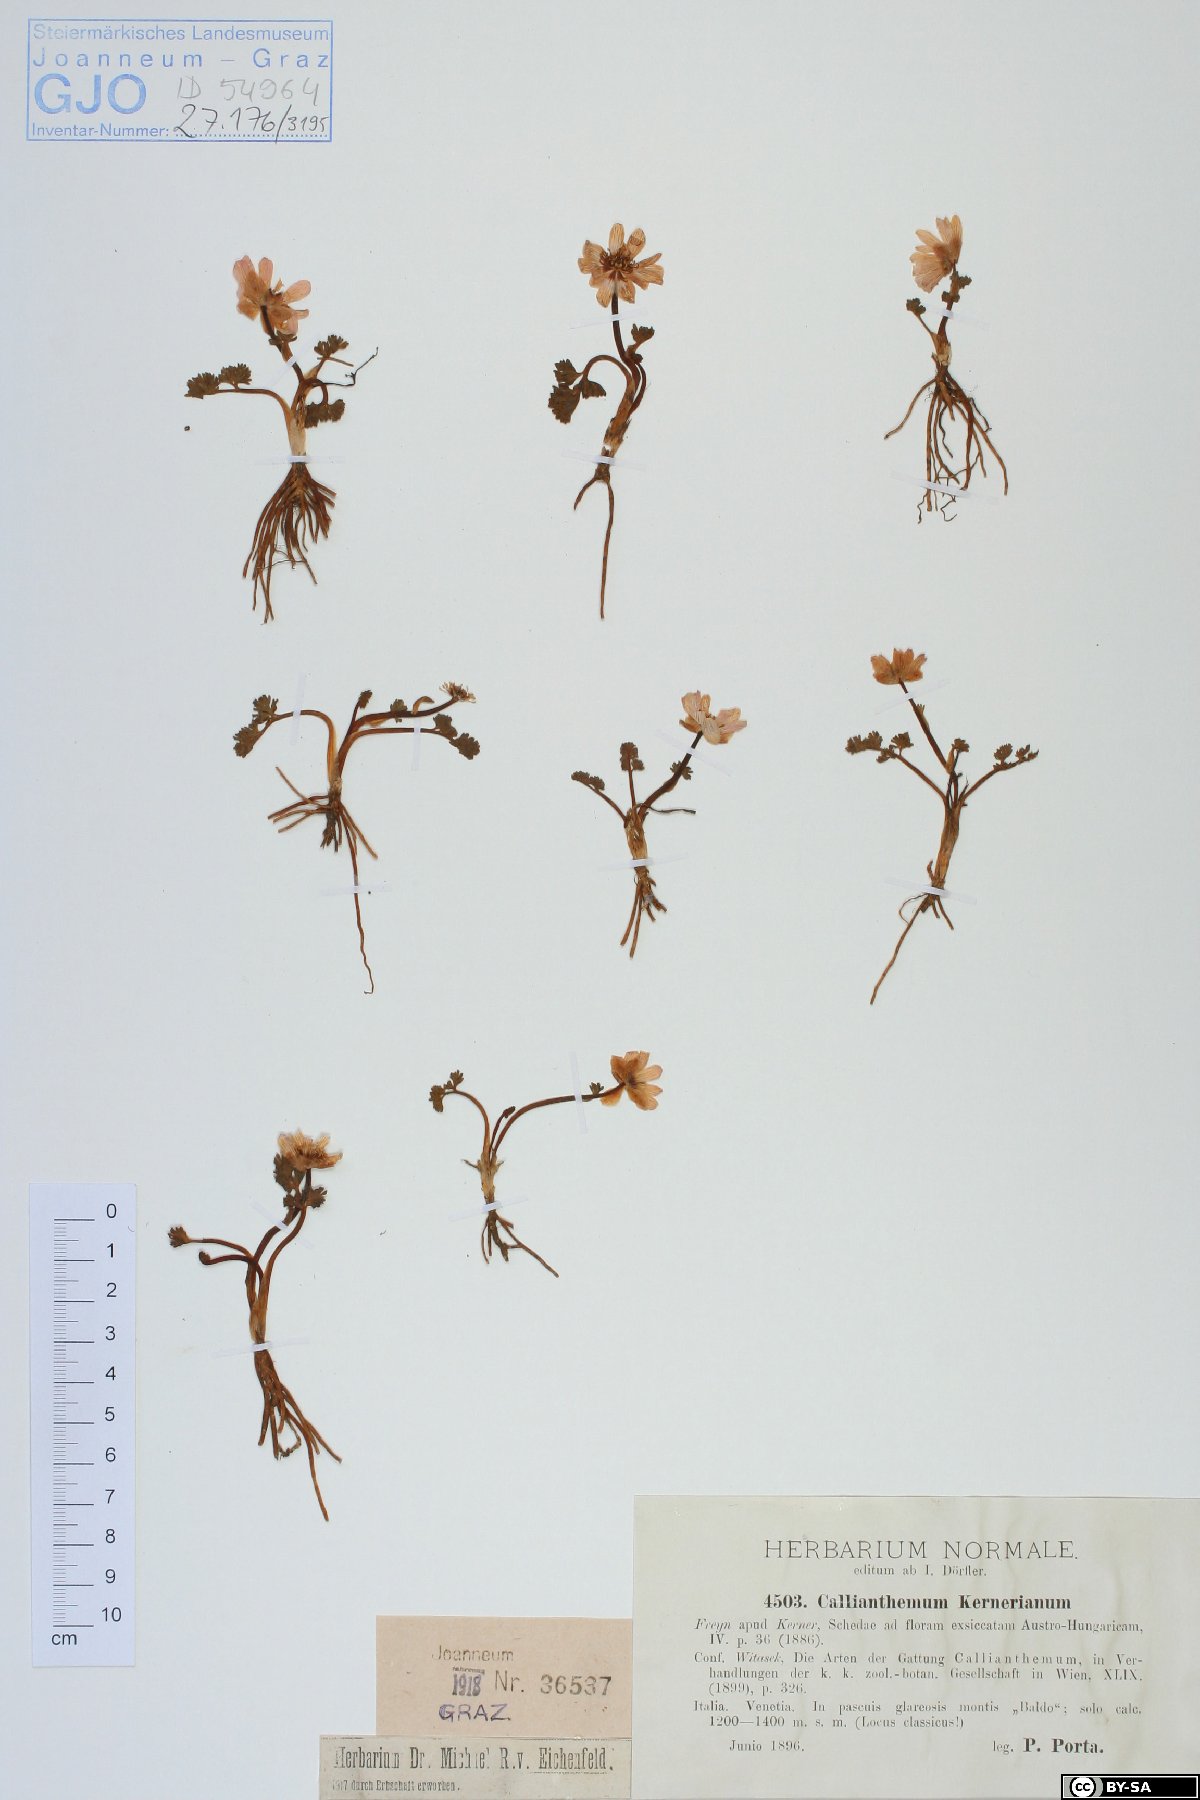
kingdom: Plantae
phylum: Tracheophyta
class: Magnoliopsida
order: Ranunculales
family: Ranunculaceae
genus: Callianthemum
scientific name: Callianthemum kernerianum
